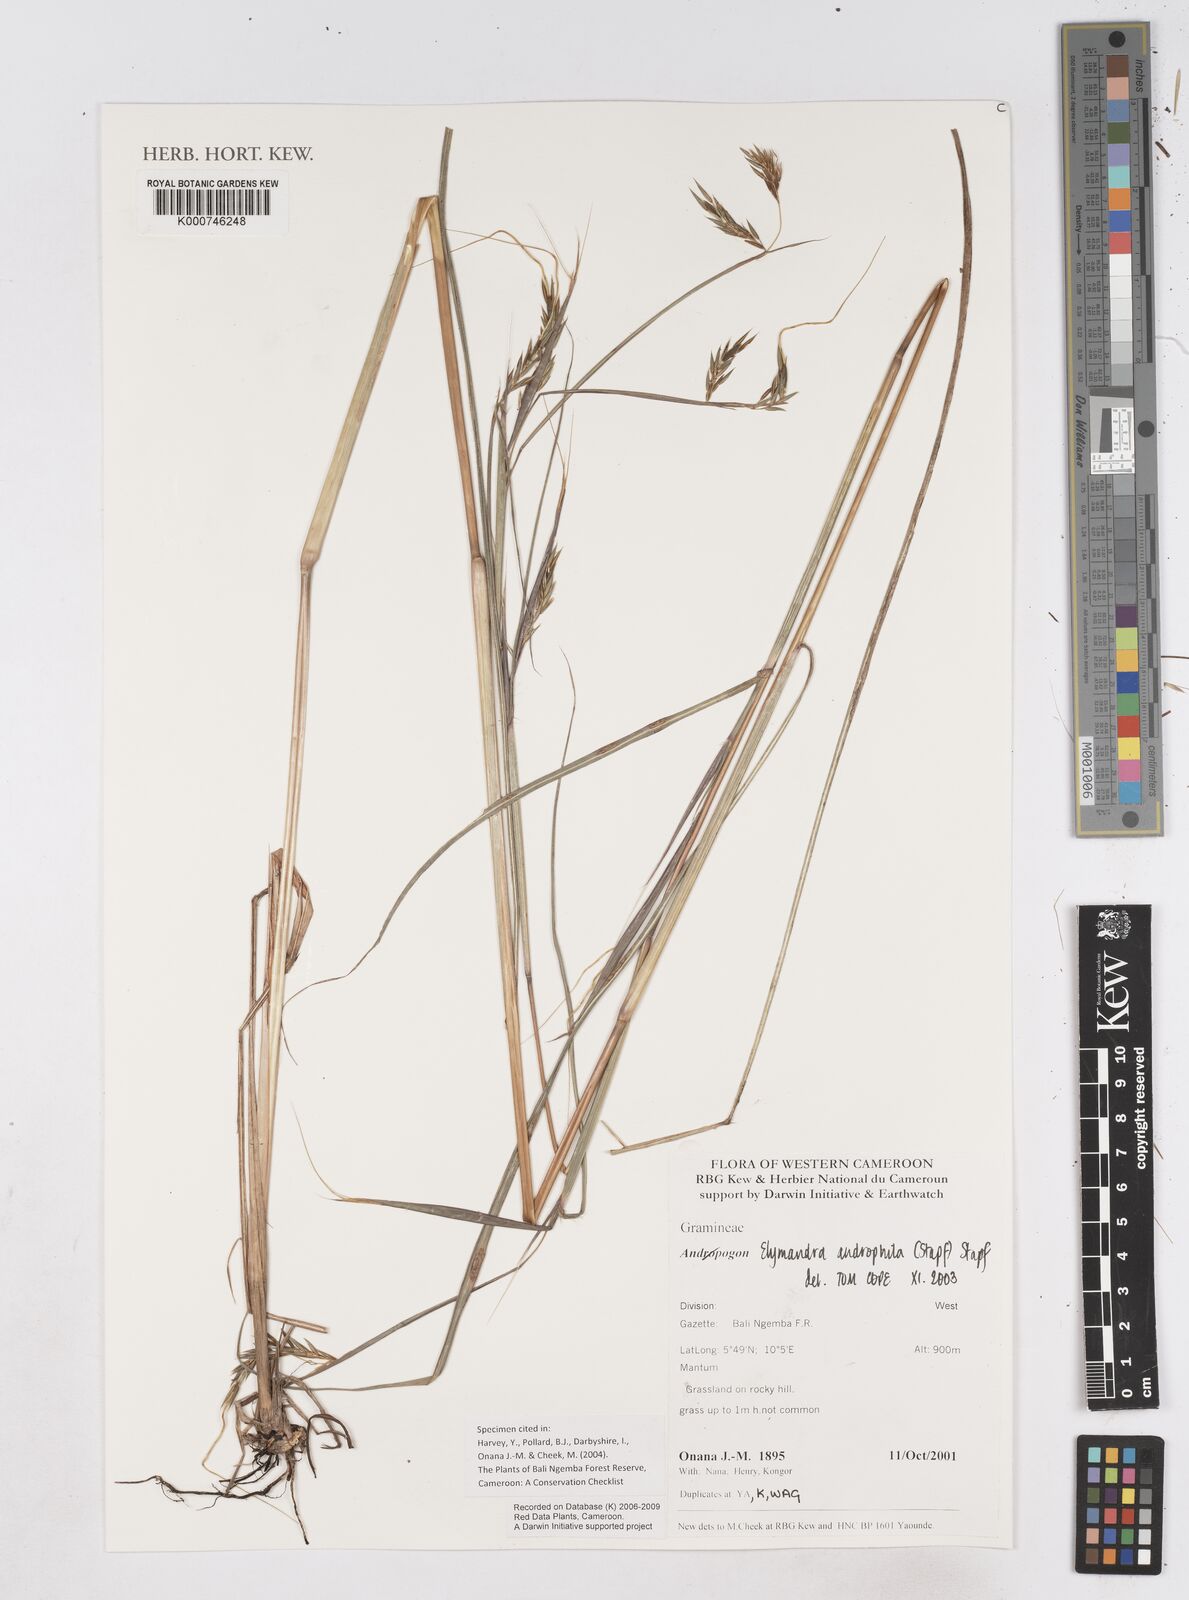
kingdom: Plantae
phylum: Tracheophyta
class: Liliopsida
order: Poales
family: Poaceae
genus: Elymandra
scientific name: Elymandra androphila
